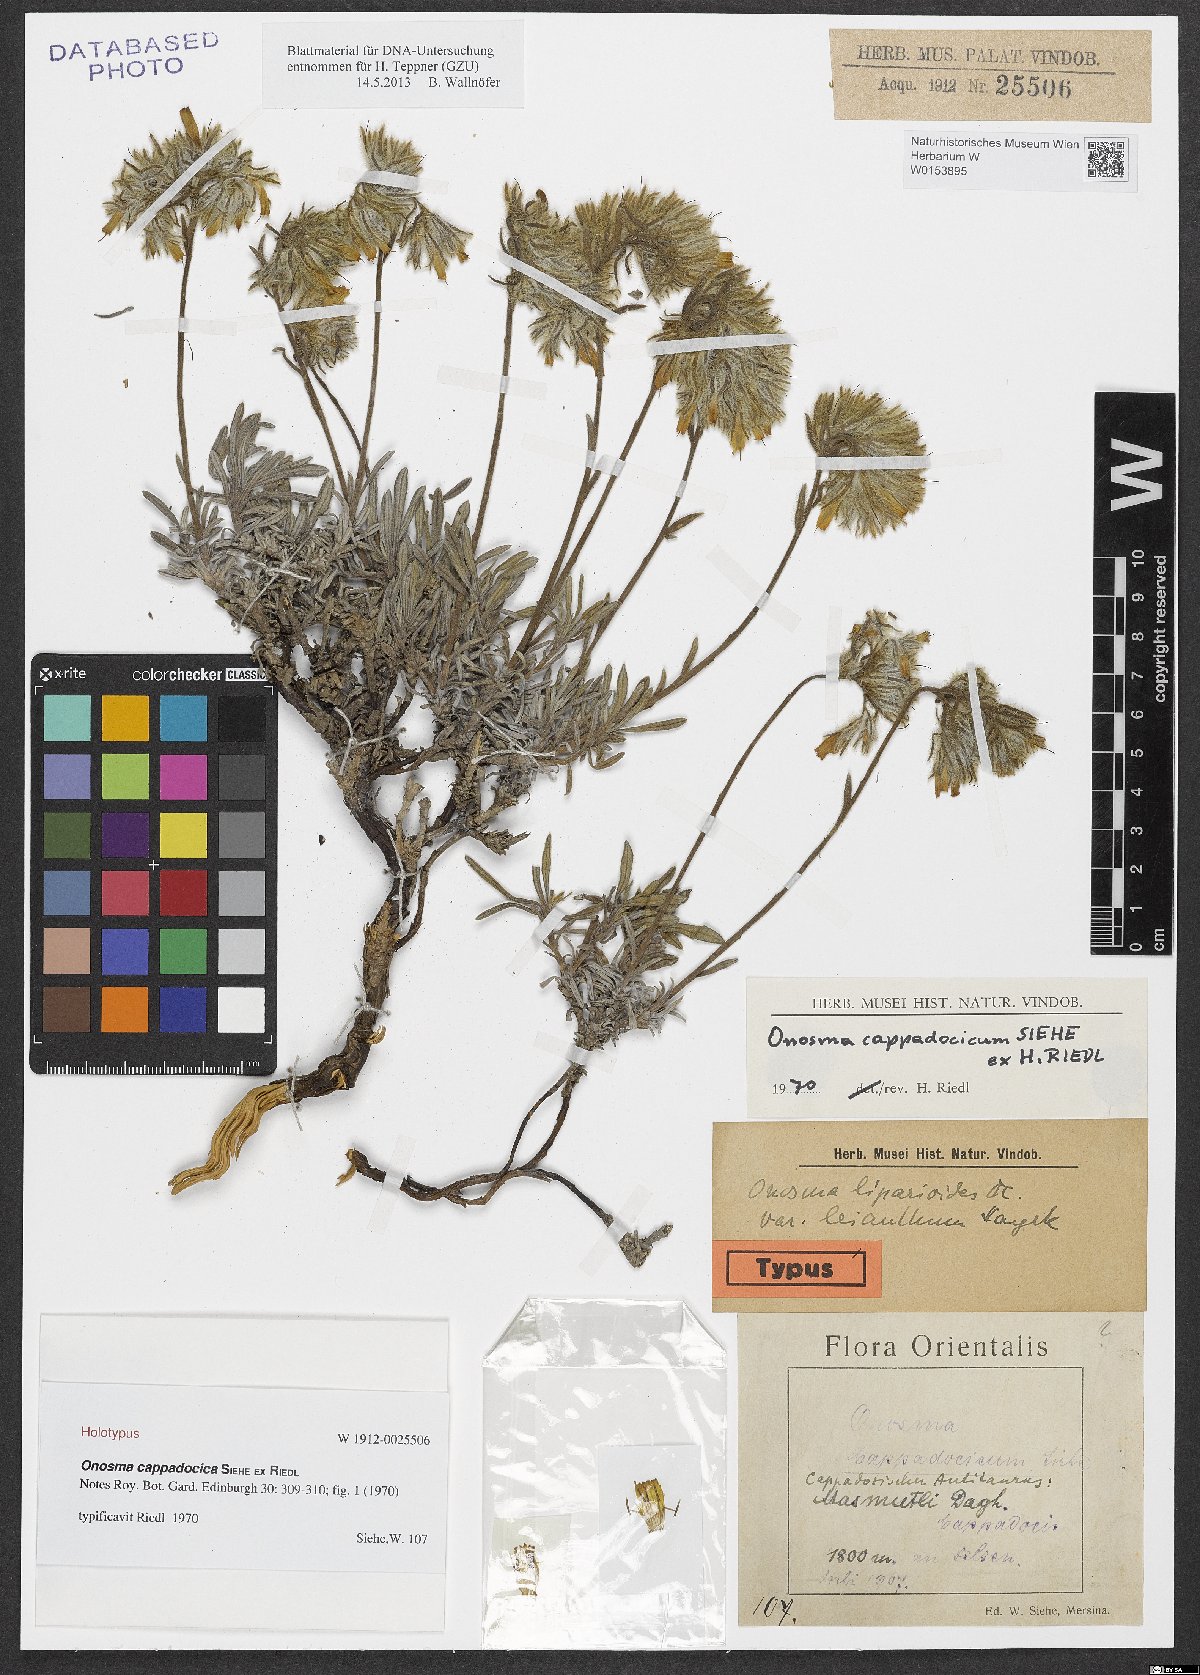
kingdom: Plantae
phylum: Tracheophyta
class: Magnoliopsida
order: Boraginales
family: Boraginaceae
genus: Onosma
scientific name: Onosma cappadocica
